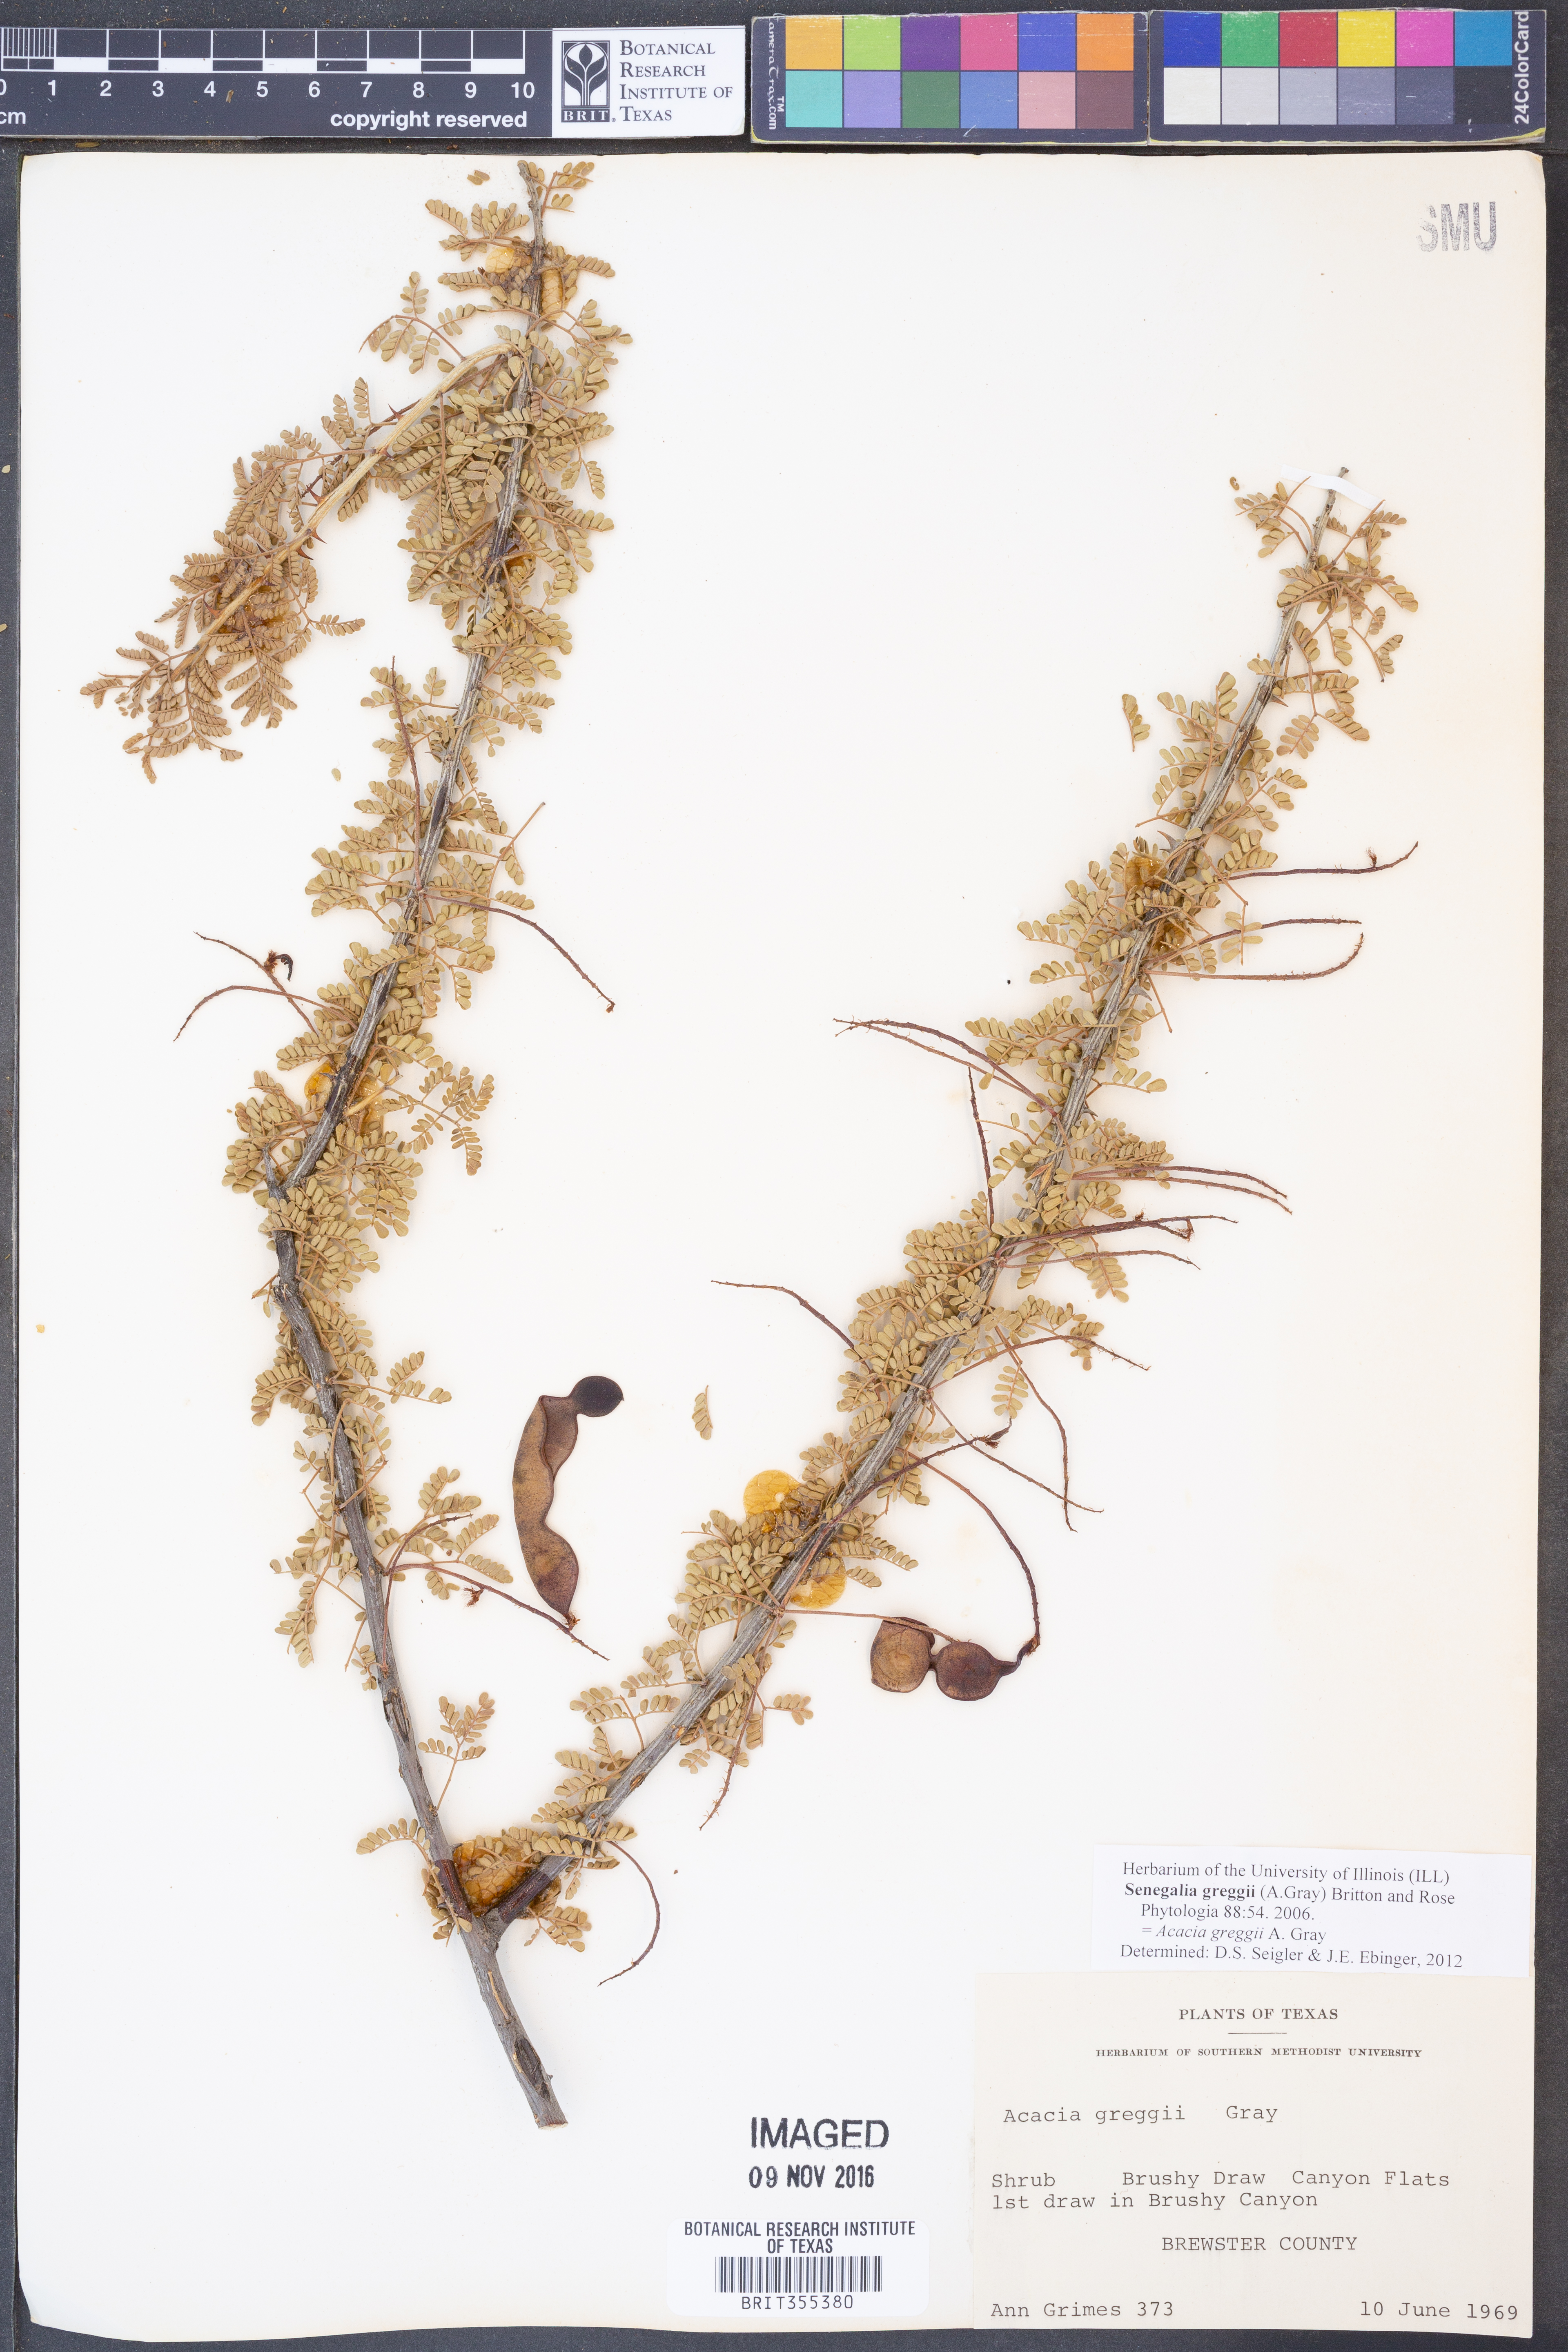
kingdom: Plantae
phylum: Tracheophyta
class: Magnoliopsida
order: Fabales
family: Fabaceae
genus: Senegalia
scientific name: Senegalia greggii
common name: Texas-mimosa
